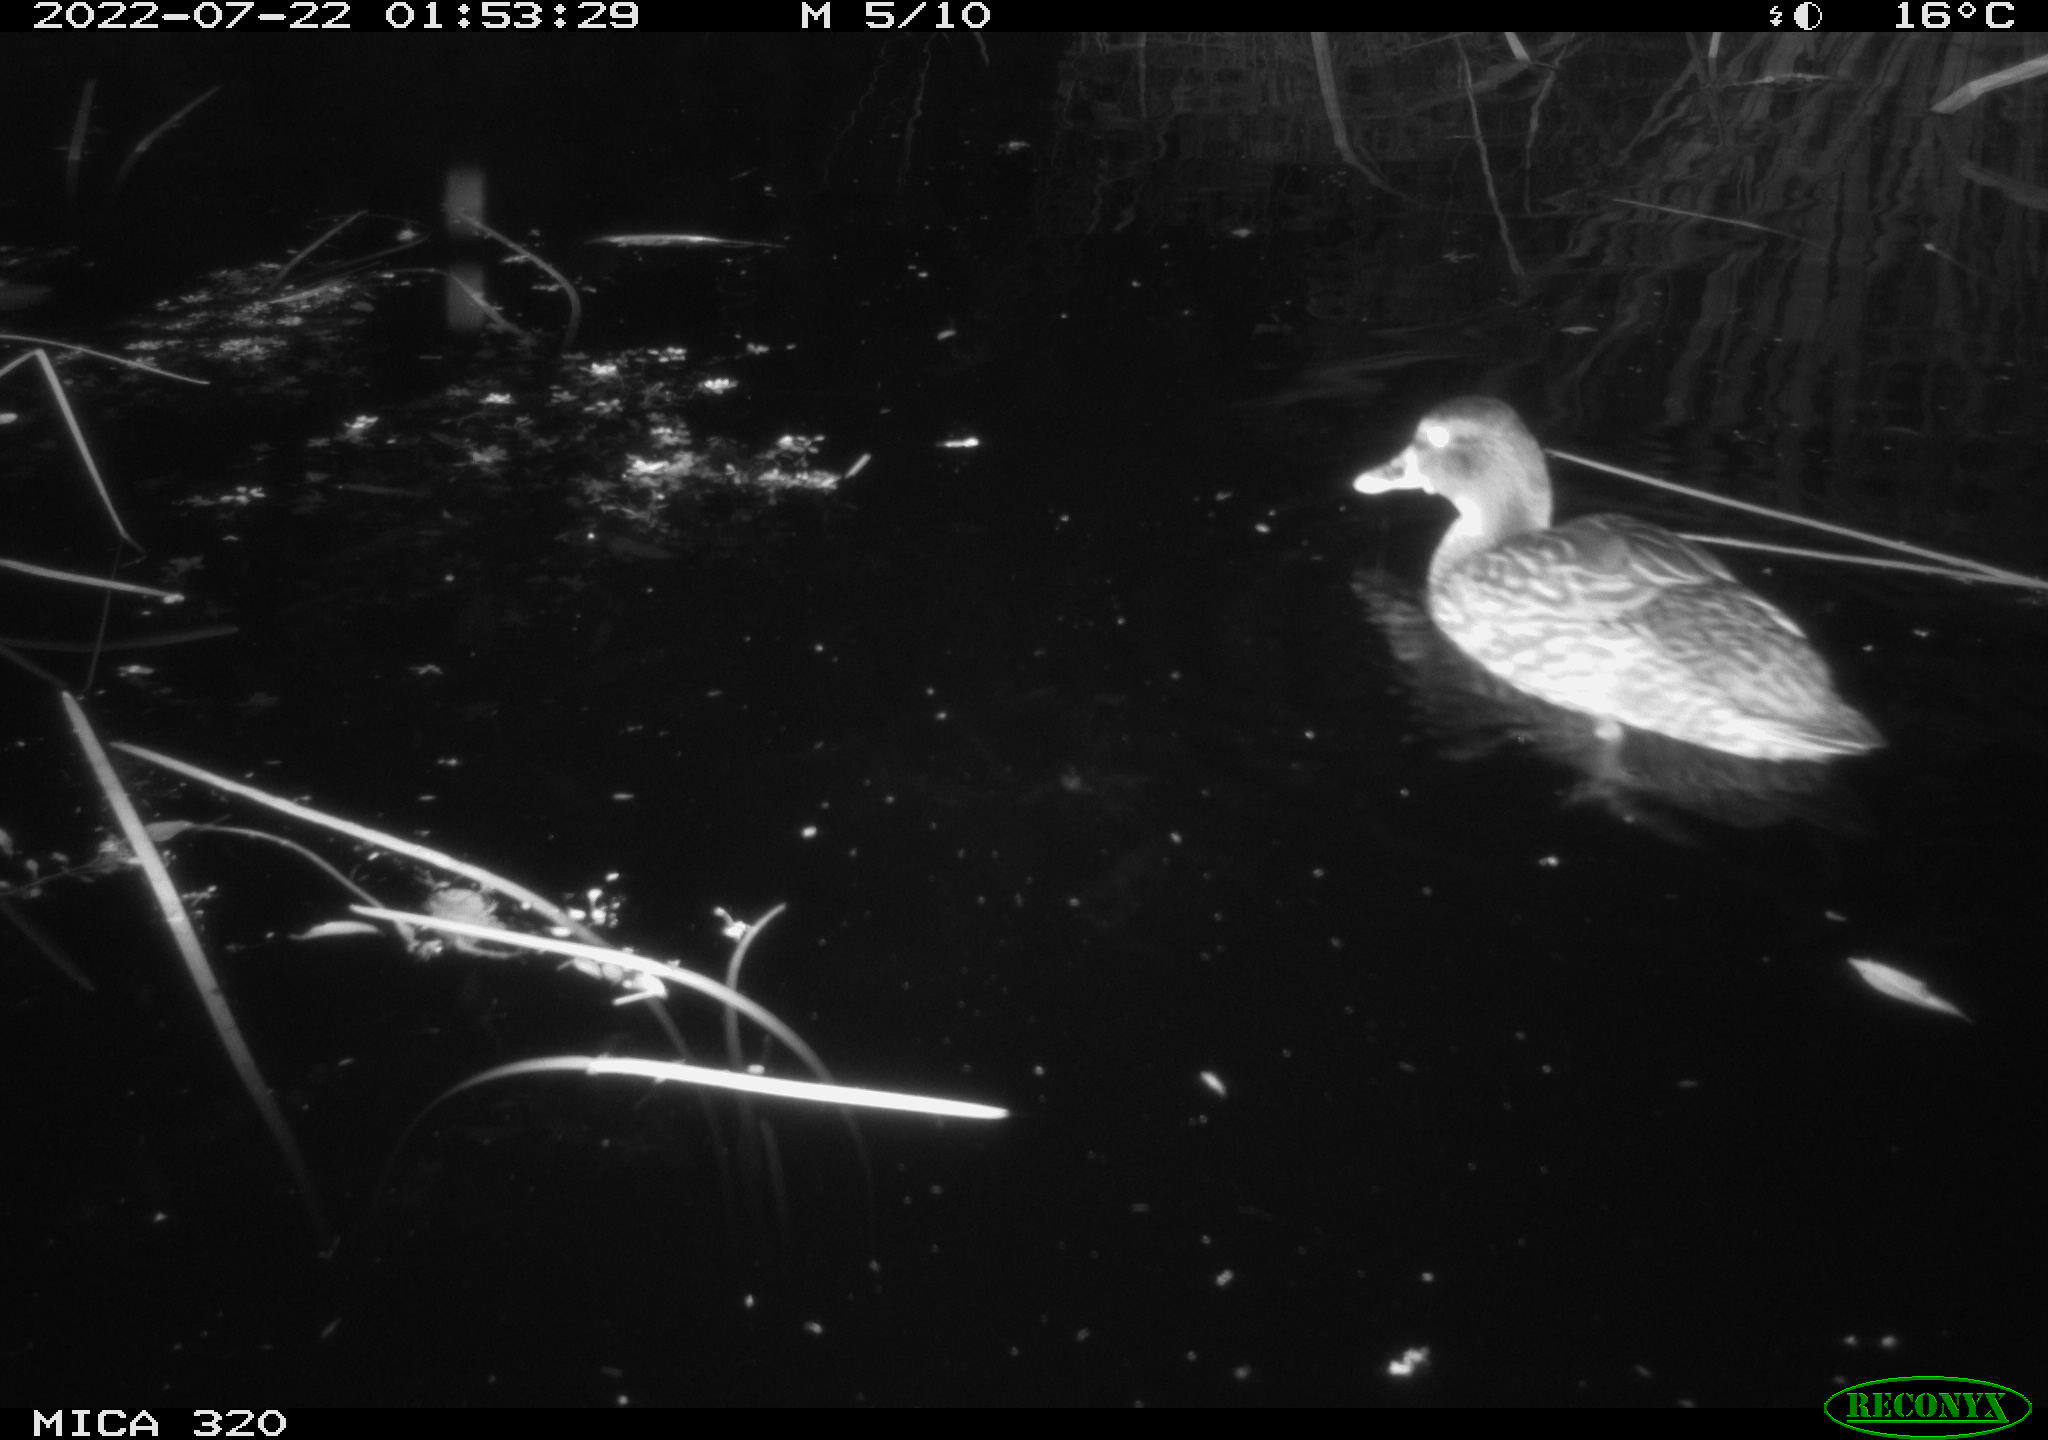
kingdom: Animalia
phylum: Chordata
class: Aves
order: Anseriformes
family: Anatidae
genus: Anas
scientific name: Anas platyrhynchos
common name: Mallard
